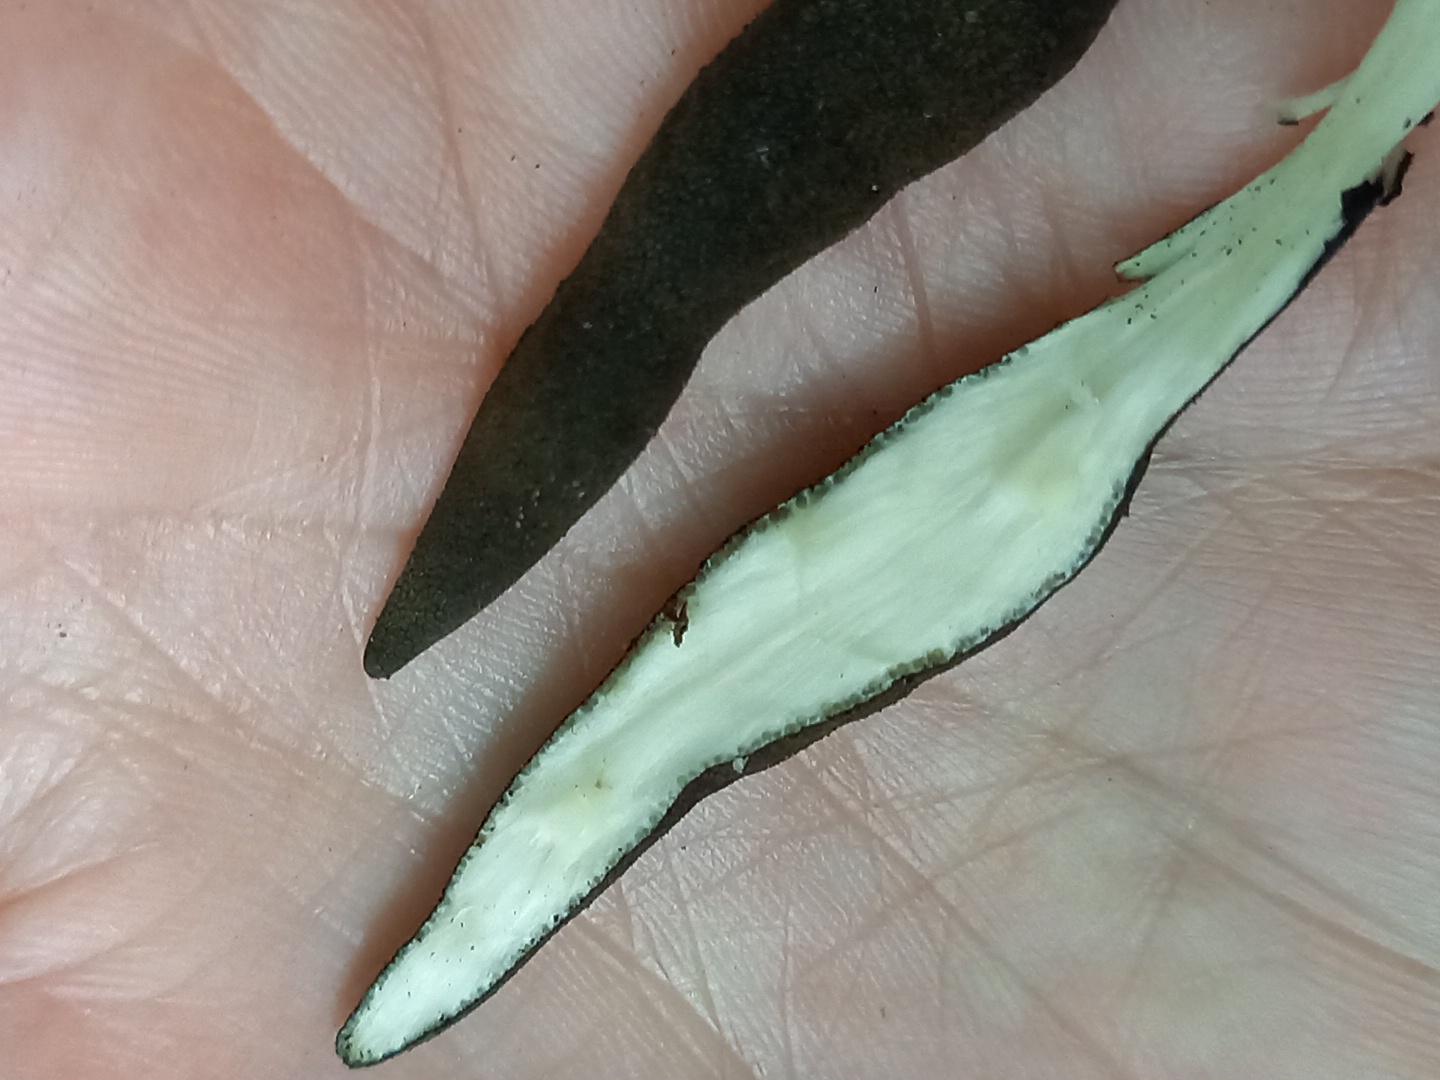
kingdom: Fungi
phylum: Ascomycota
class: Sordariomycetes
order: Xylariales
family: Xylariaceae
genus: Xylaria
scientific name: Xylaria longipes
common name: slank stødsvamp
